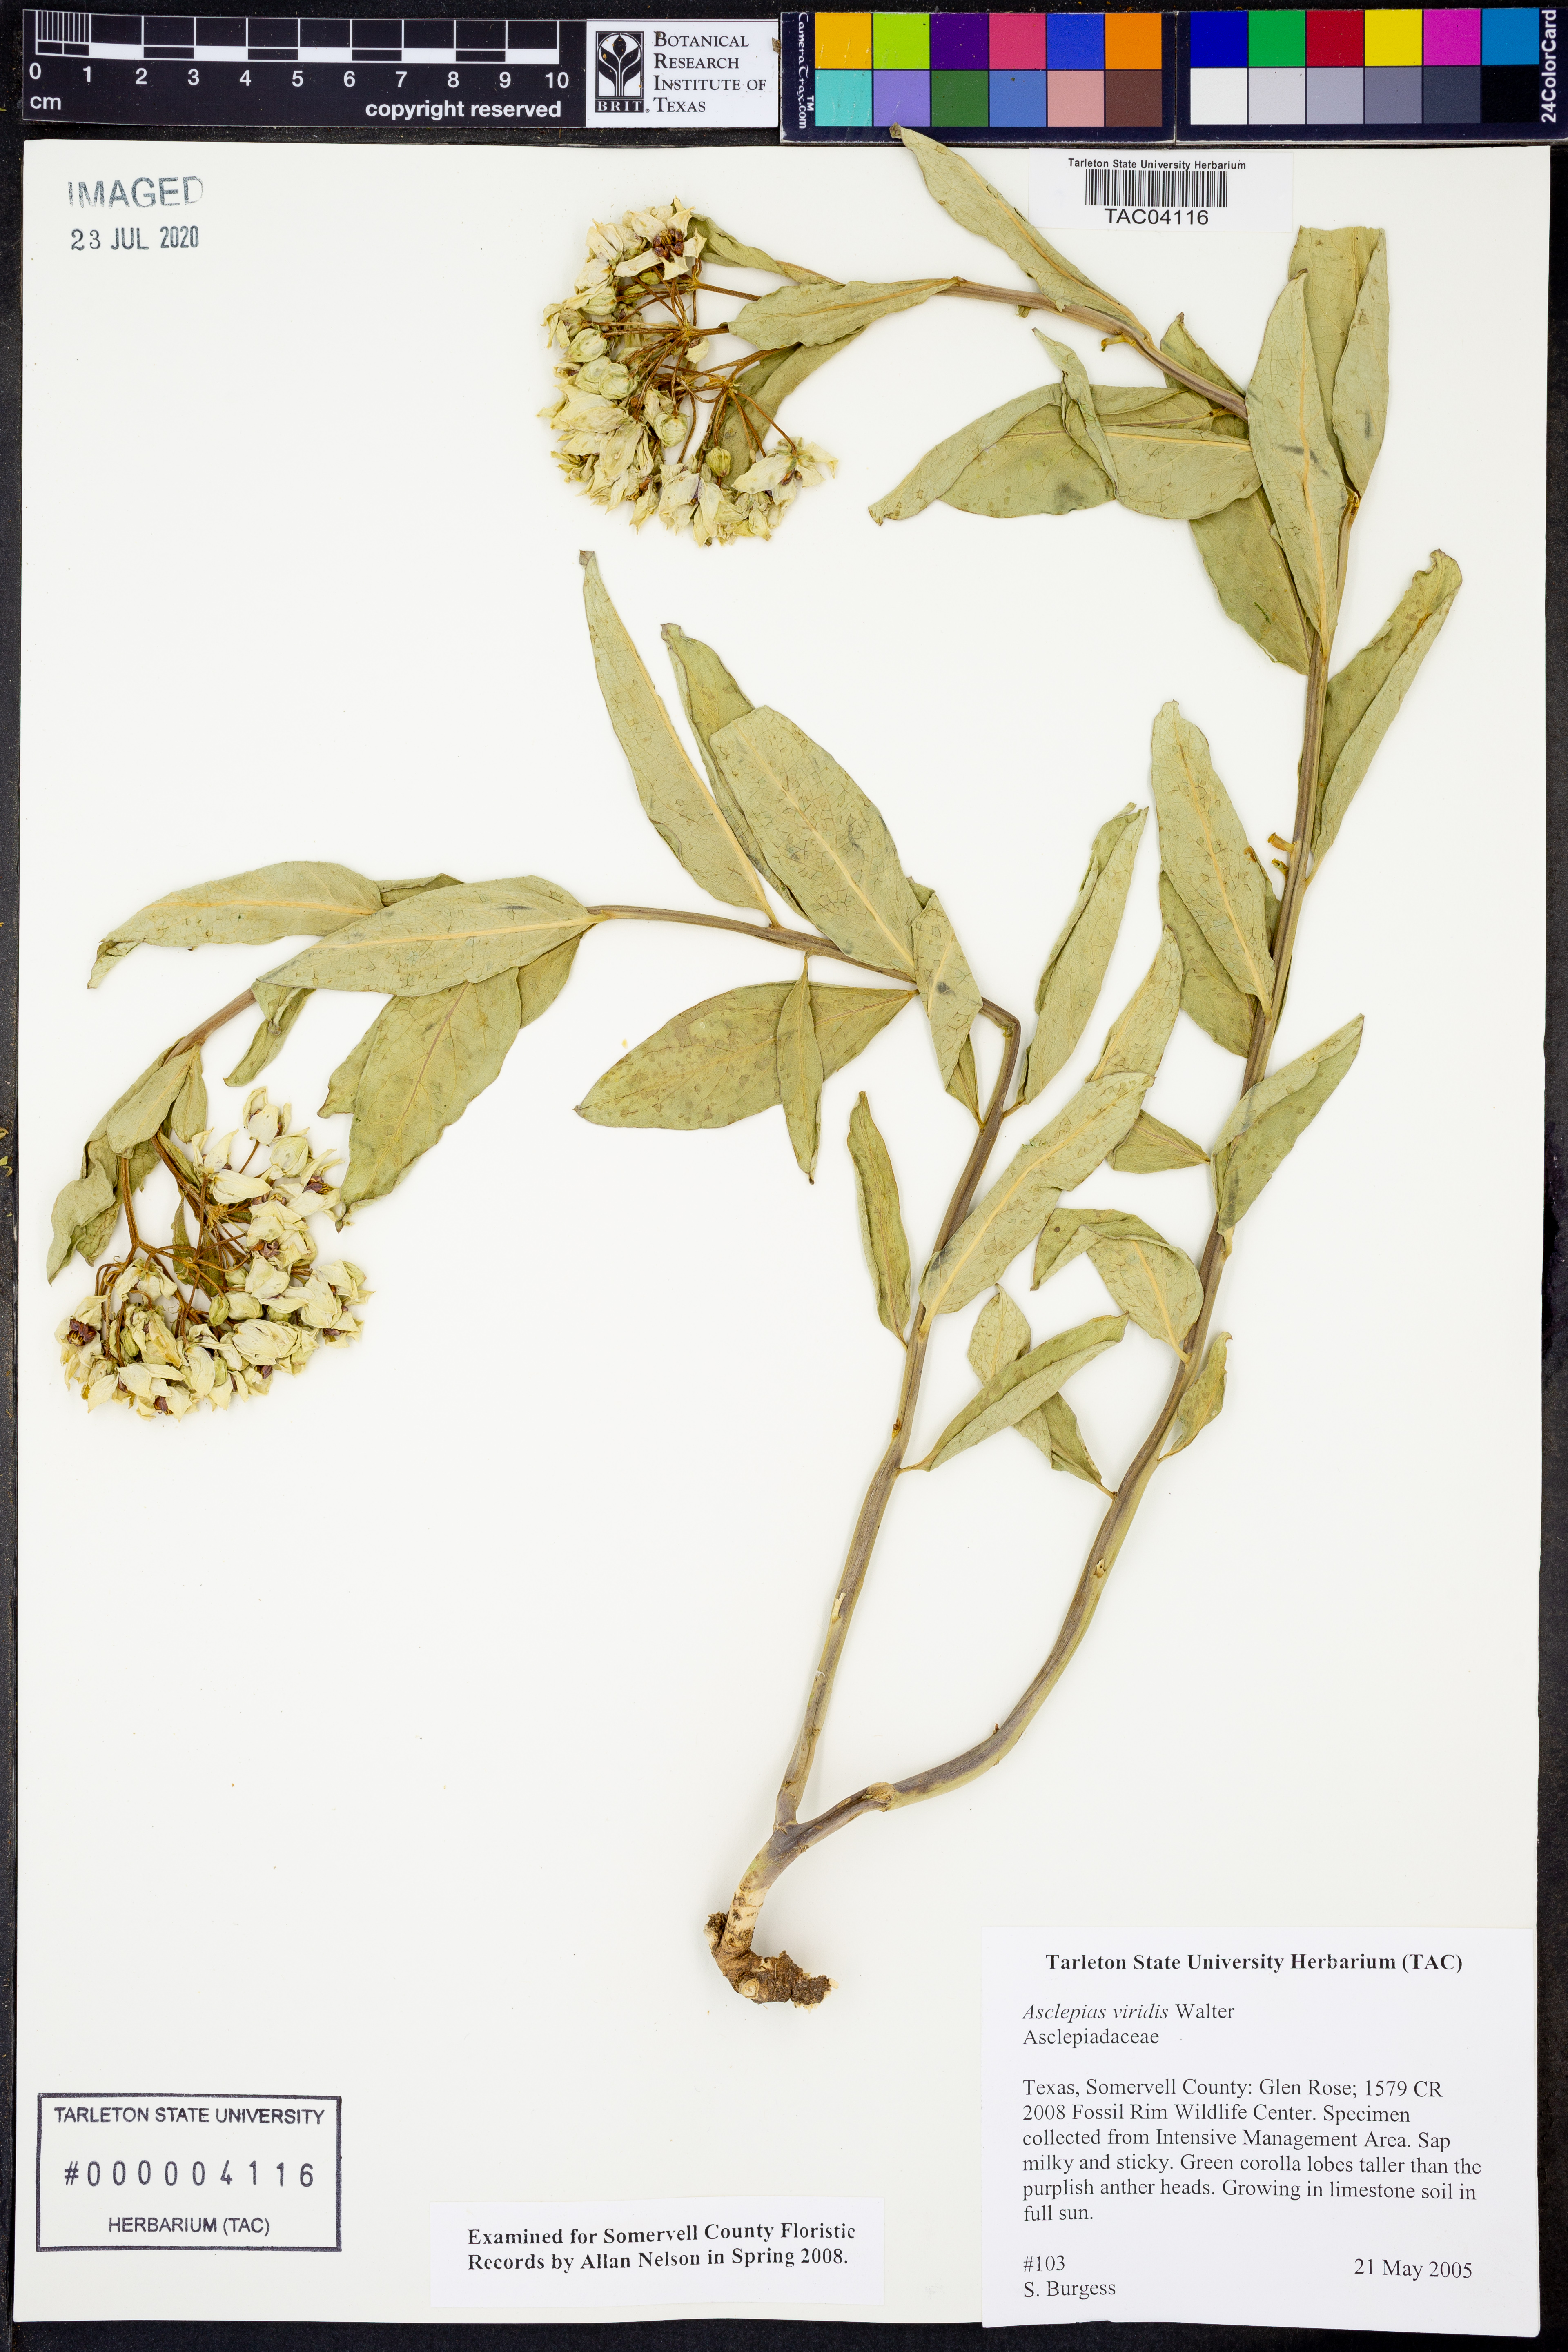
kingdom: Plantae
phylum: Tracheophyta
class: Magnoliopsida
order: Gentianales
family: Apocynaceae
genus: Asclepias
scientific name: Asclepias viridis
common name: Antelope-horns
